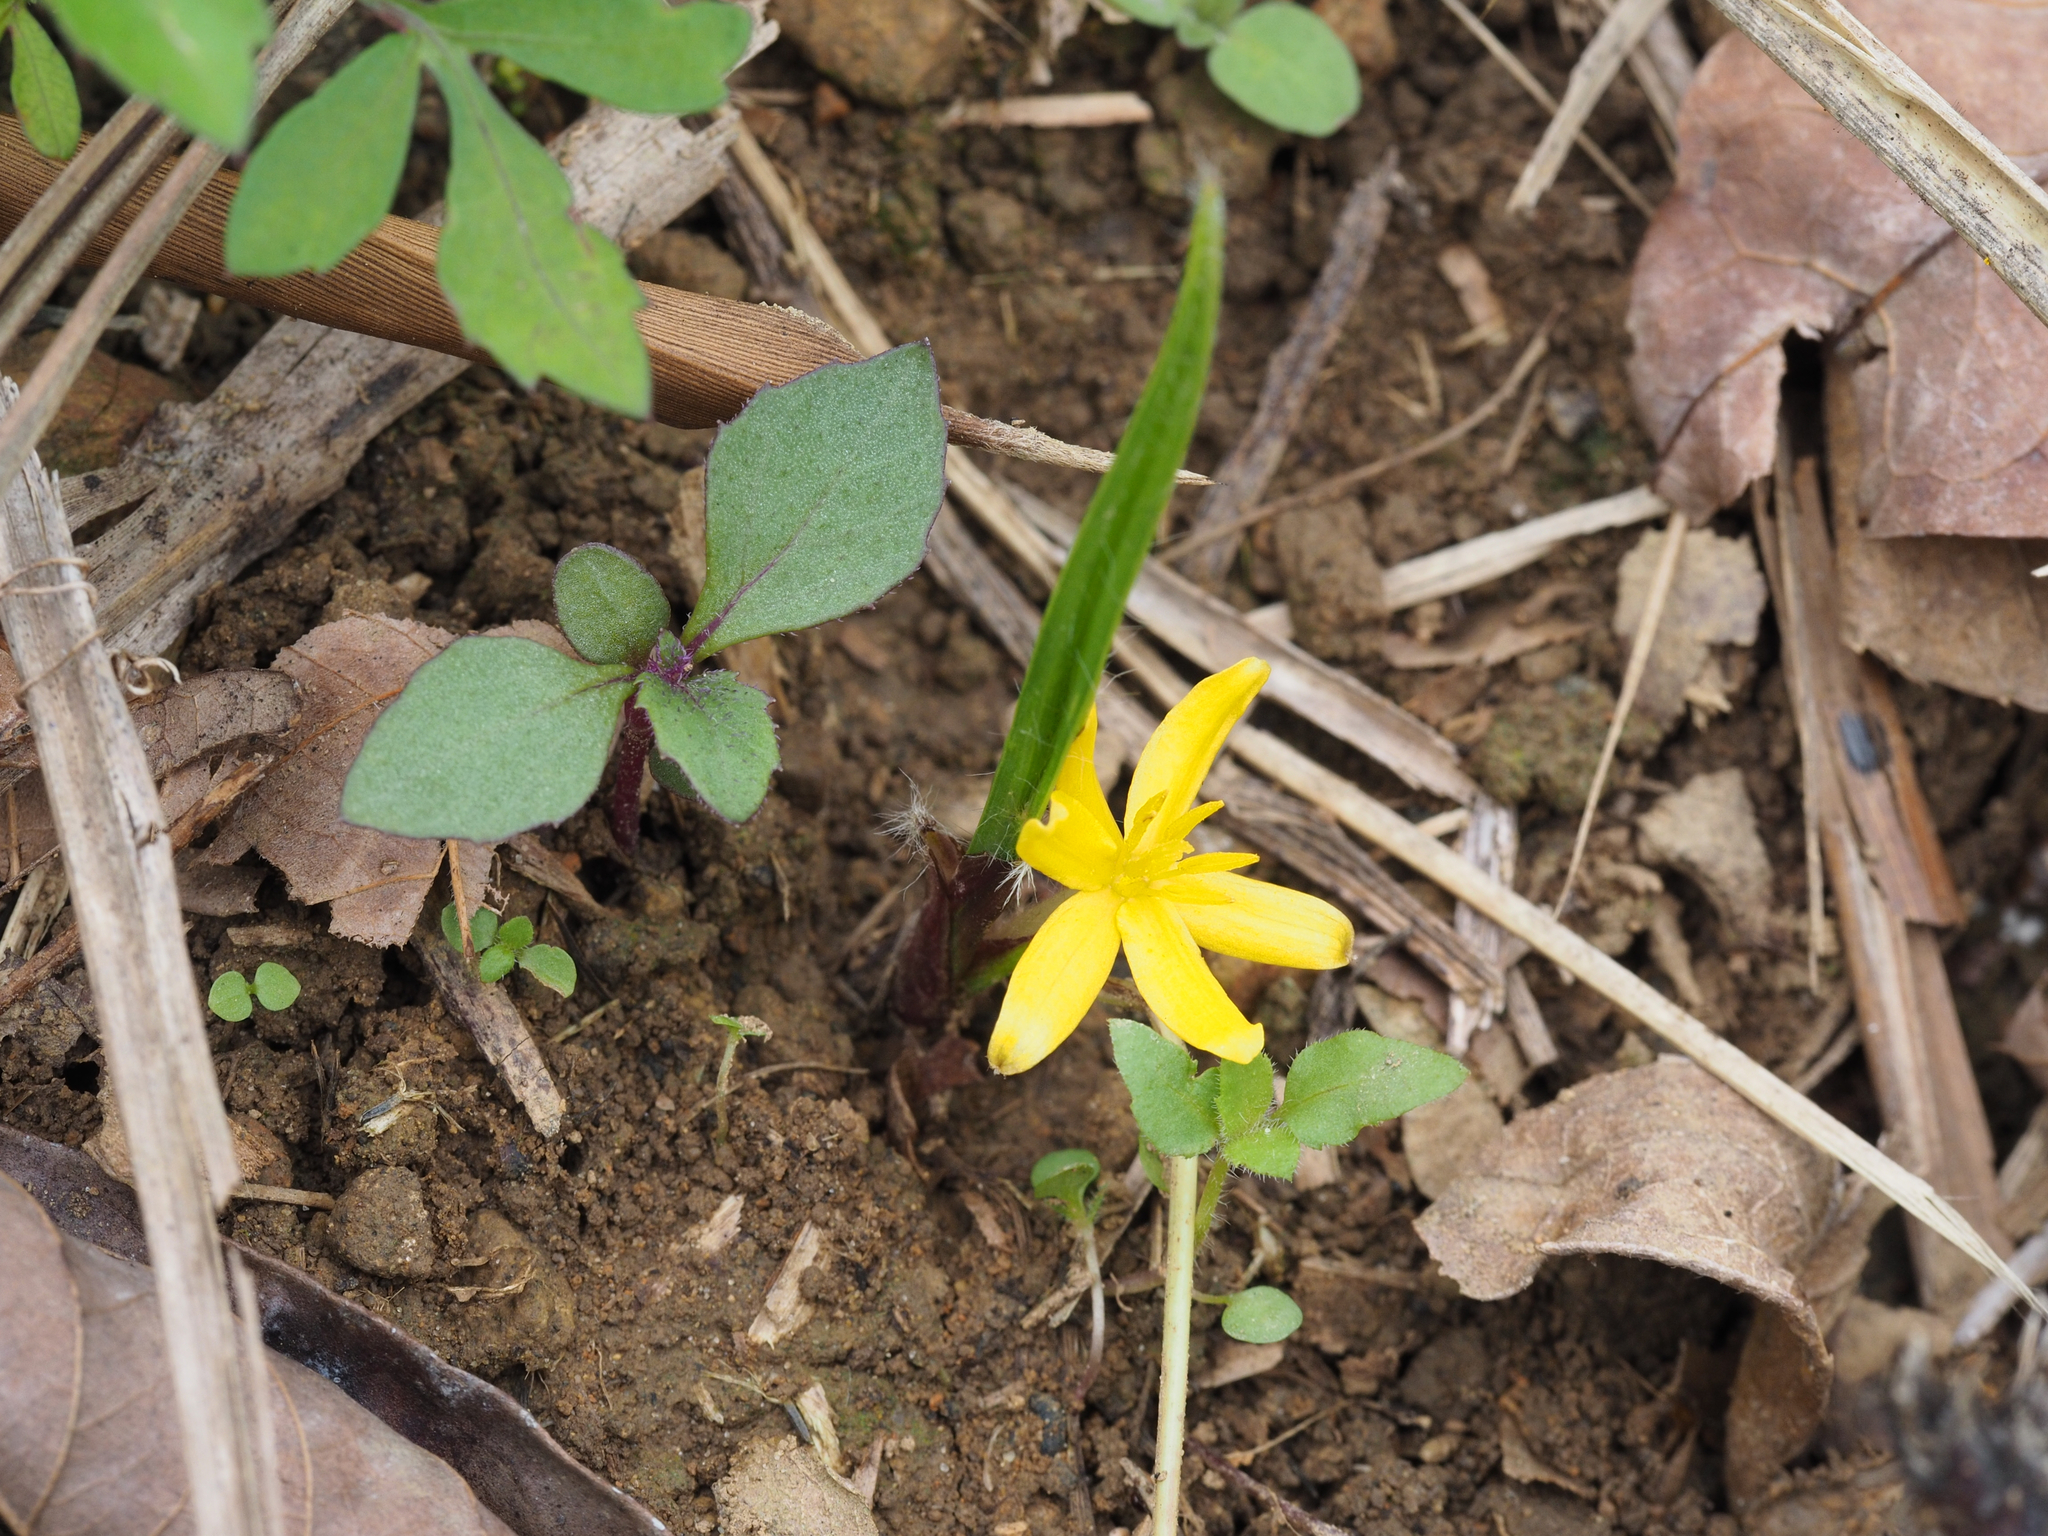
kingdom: Plantae
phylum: Tracheophyta
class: Liliopsida
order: Asparagales
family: Amaryllidaceae
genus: Lycoris
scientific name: Lycoris albiflora
